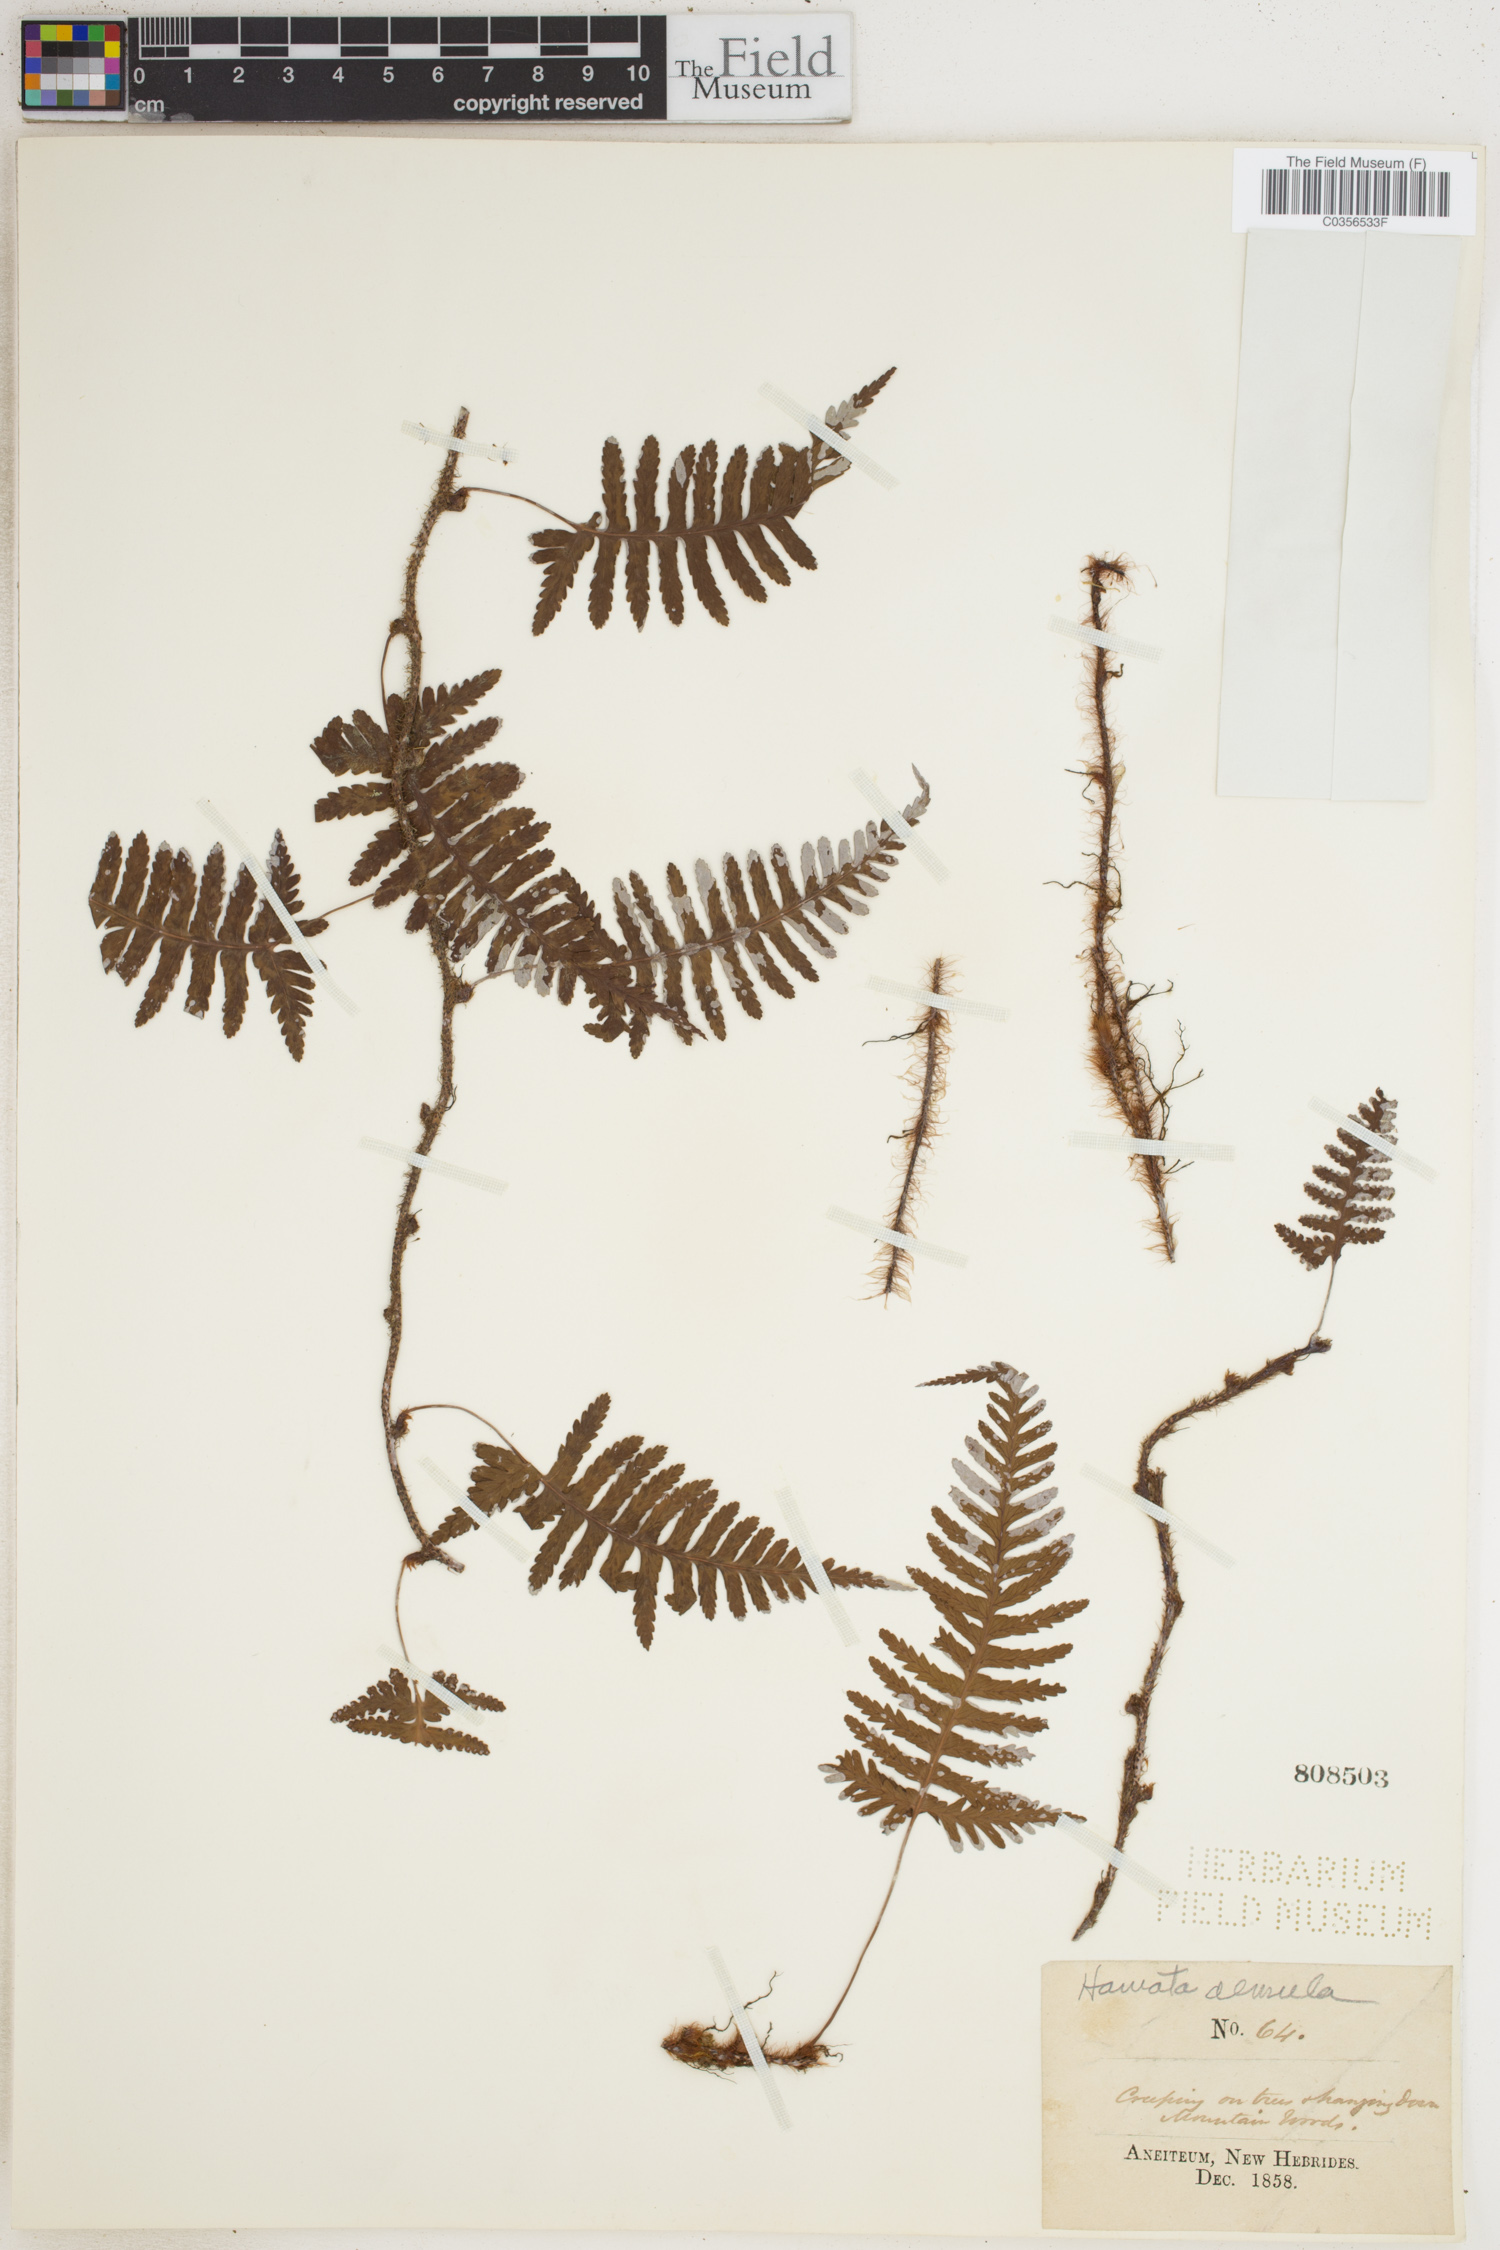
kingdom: Plantae
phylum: Tracheophyta
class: Polypodiopsida
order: Polypodiales
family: Davalliaceae
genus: Davallia
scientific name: Davallia sessilifolia
